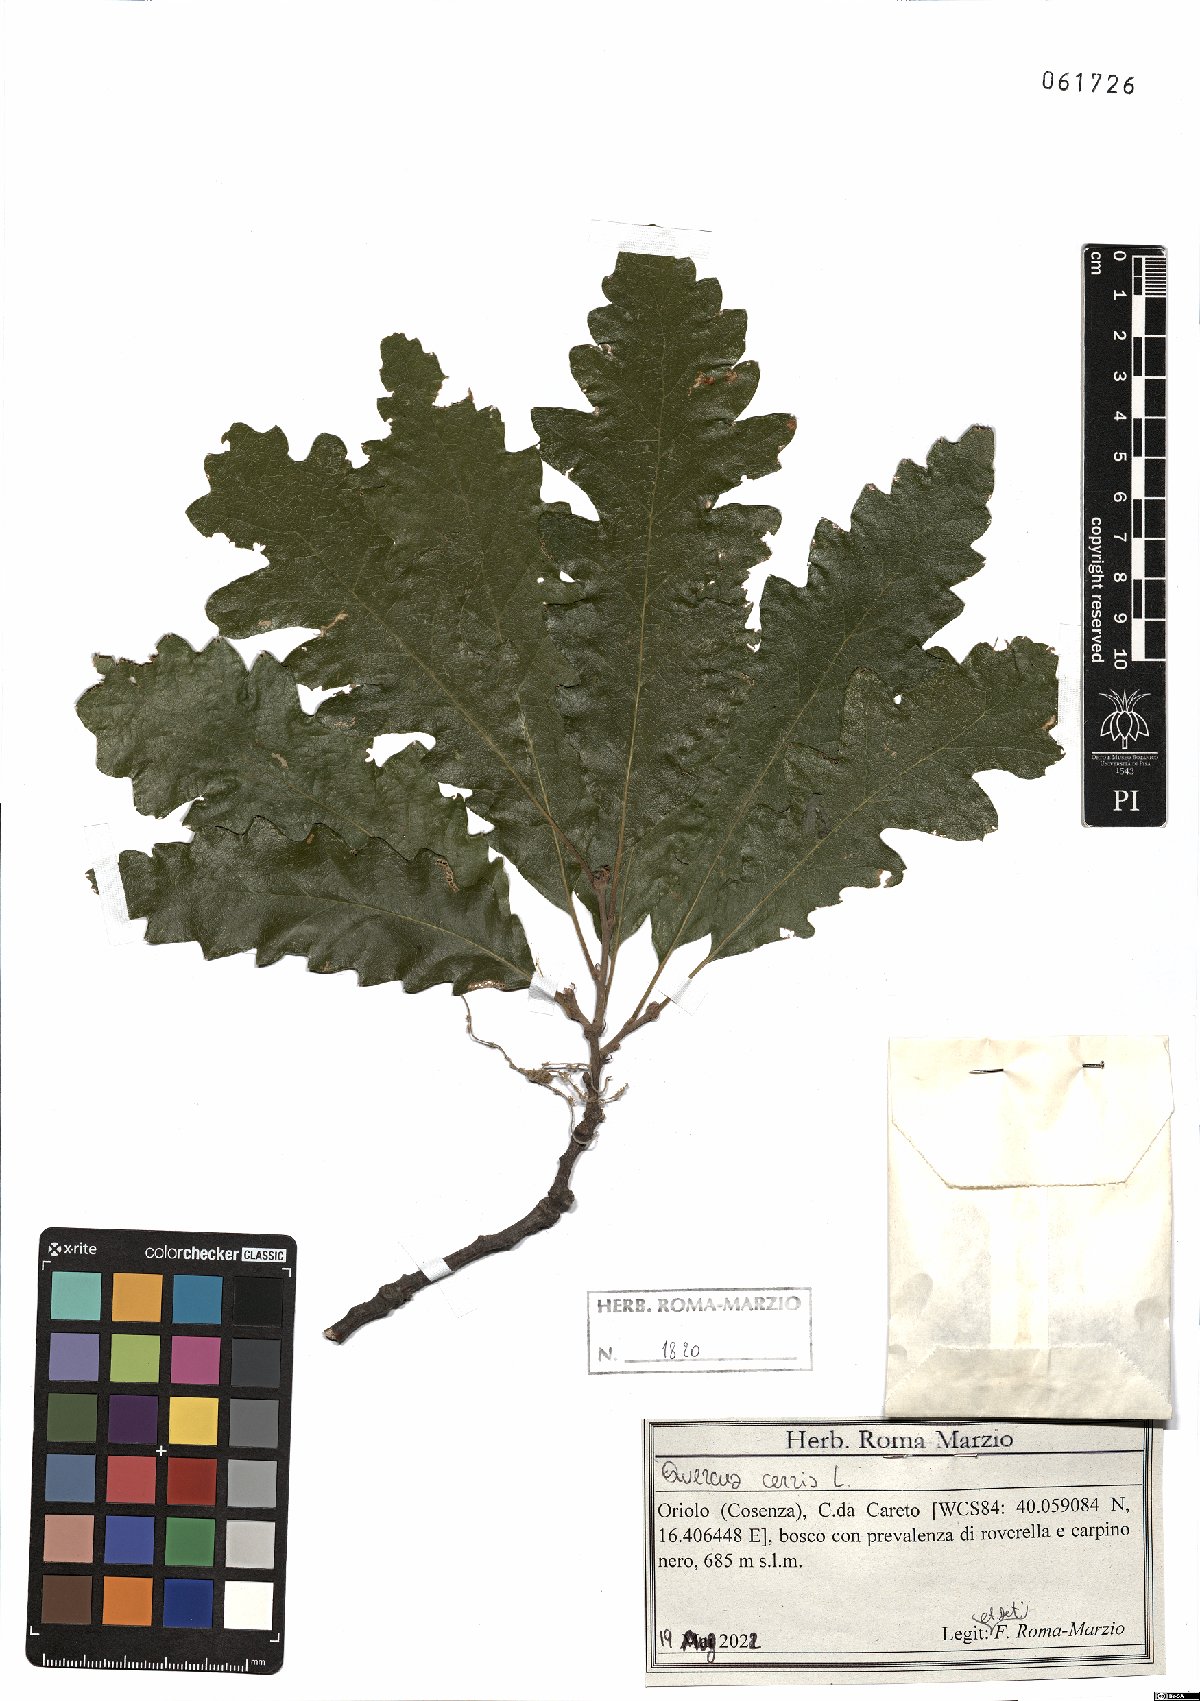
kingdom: Plantae
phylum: Tracheophyta
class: Magnoliopsida
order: Fagales
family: Fagaceae
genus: Quercus
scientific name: Quercus cerris
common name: Turkey oak
